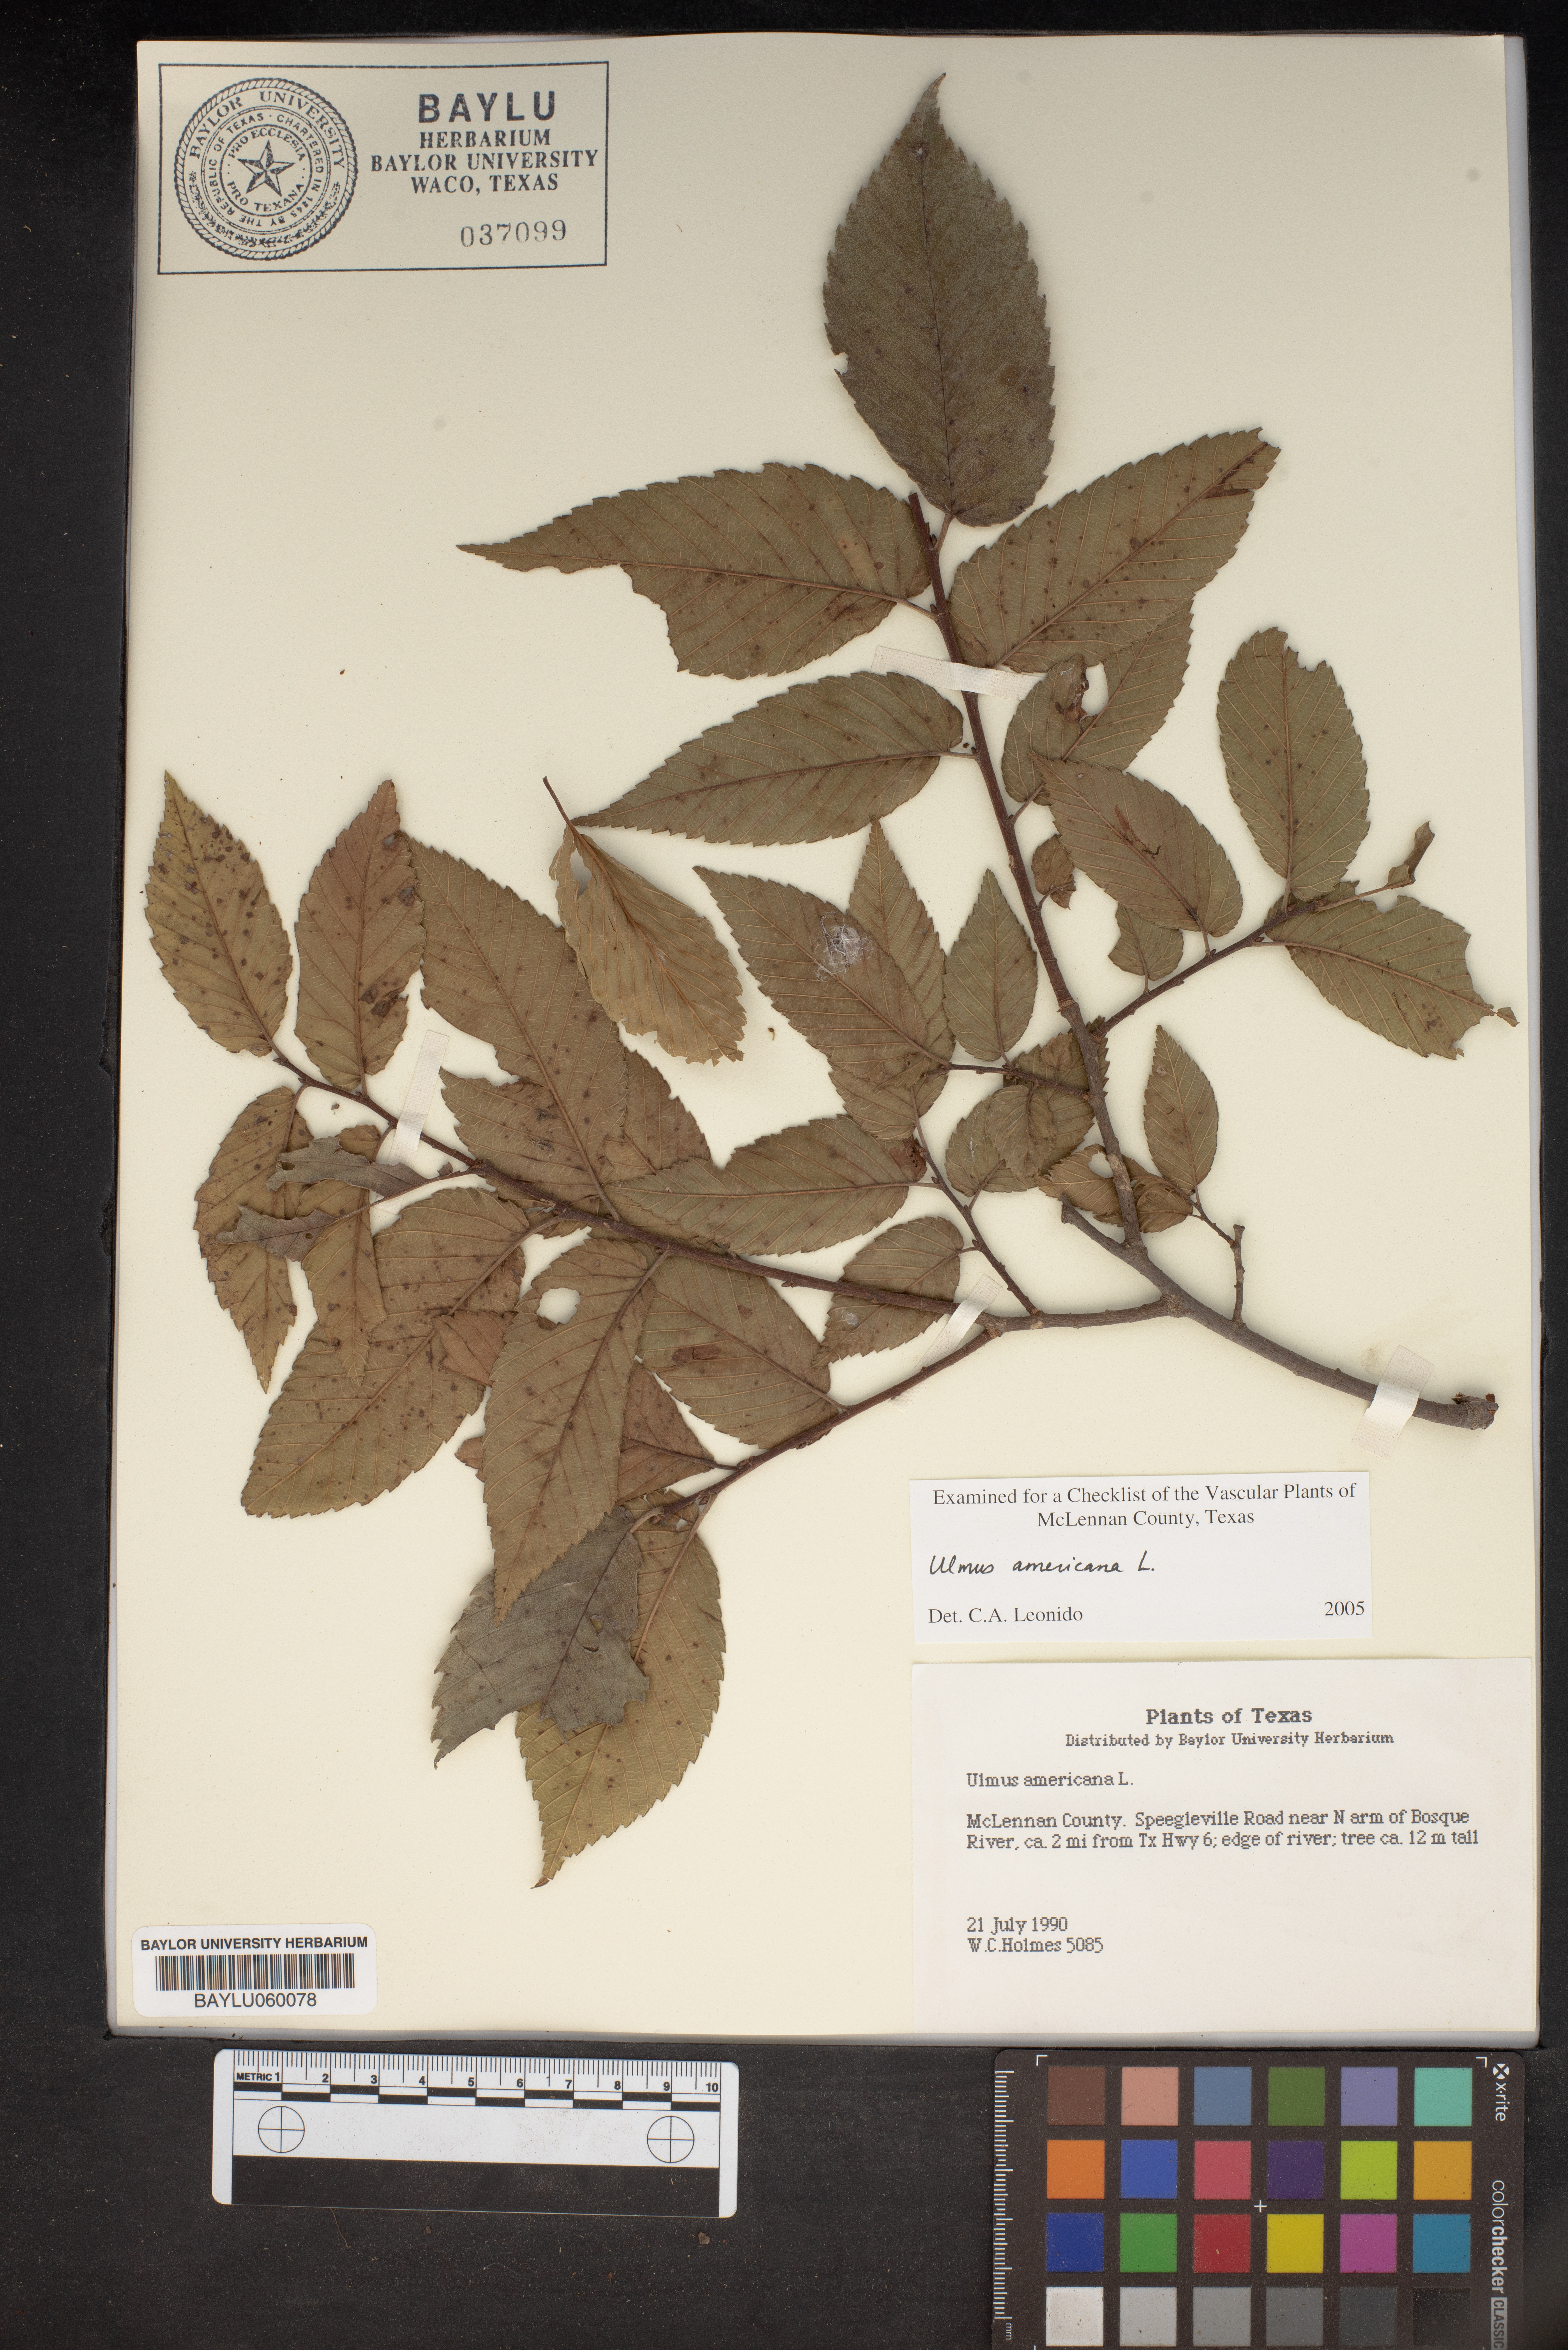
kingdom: Plantae
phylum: Tracheophyta
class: Magnoliopsida
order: Rosales
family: Ulmaceae
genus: Ulmus
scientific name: Ulmus americana
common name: American elm
